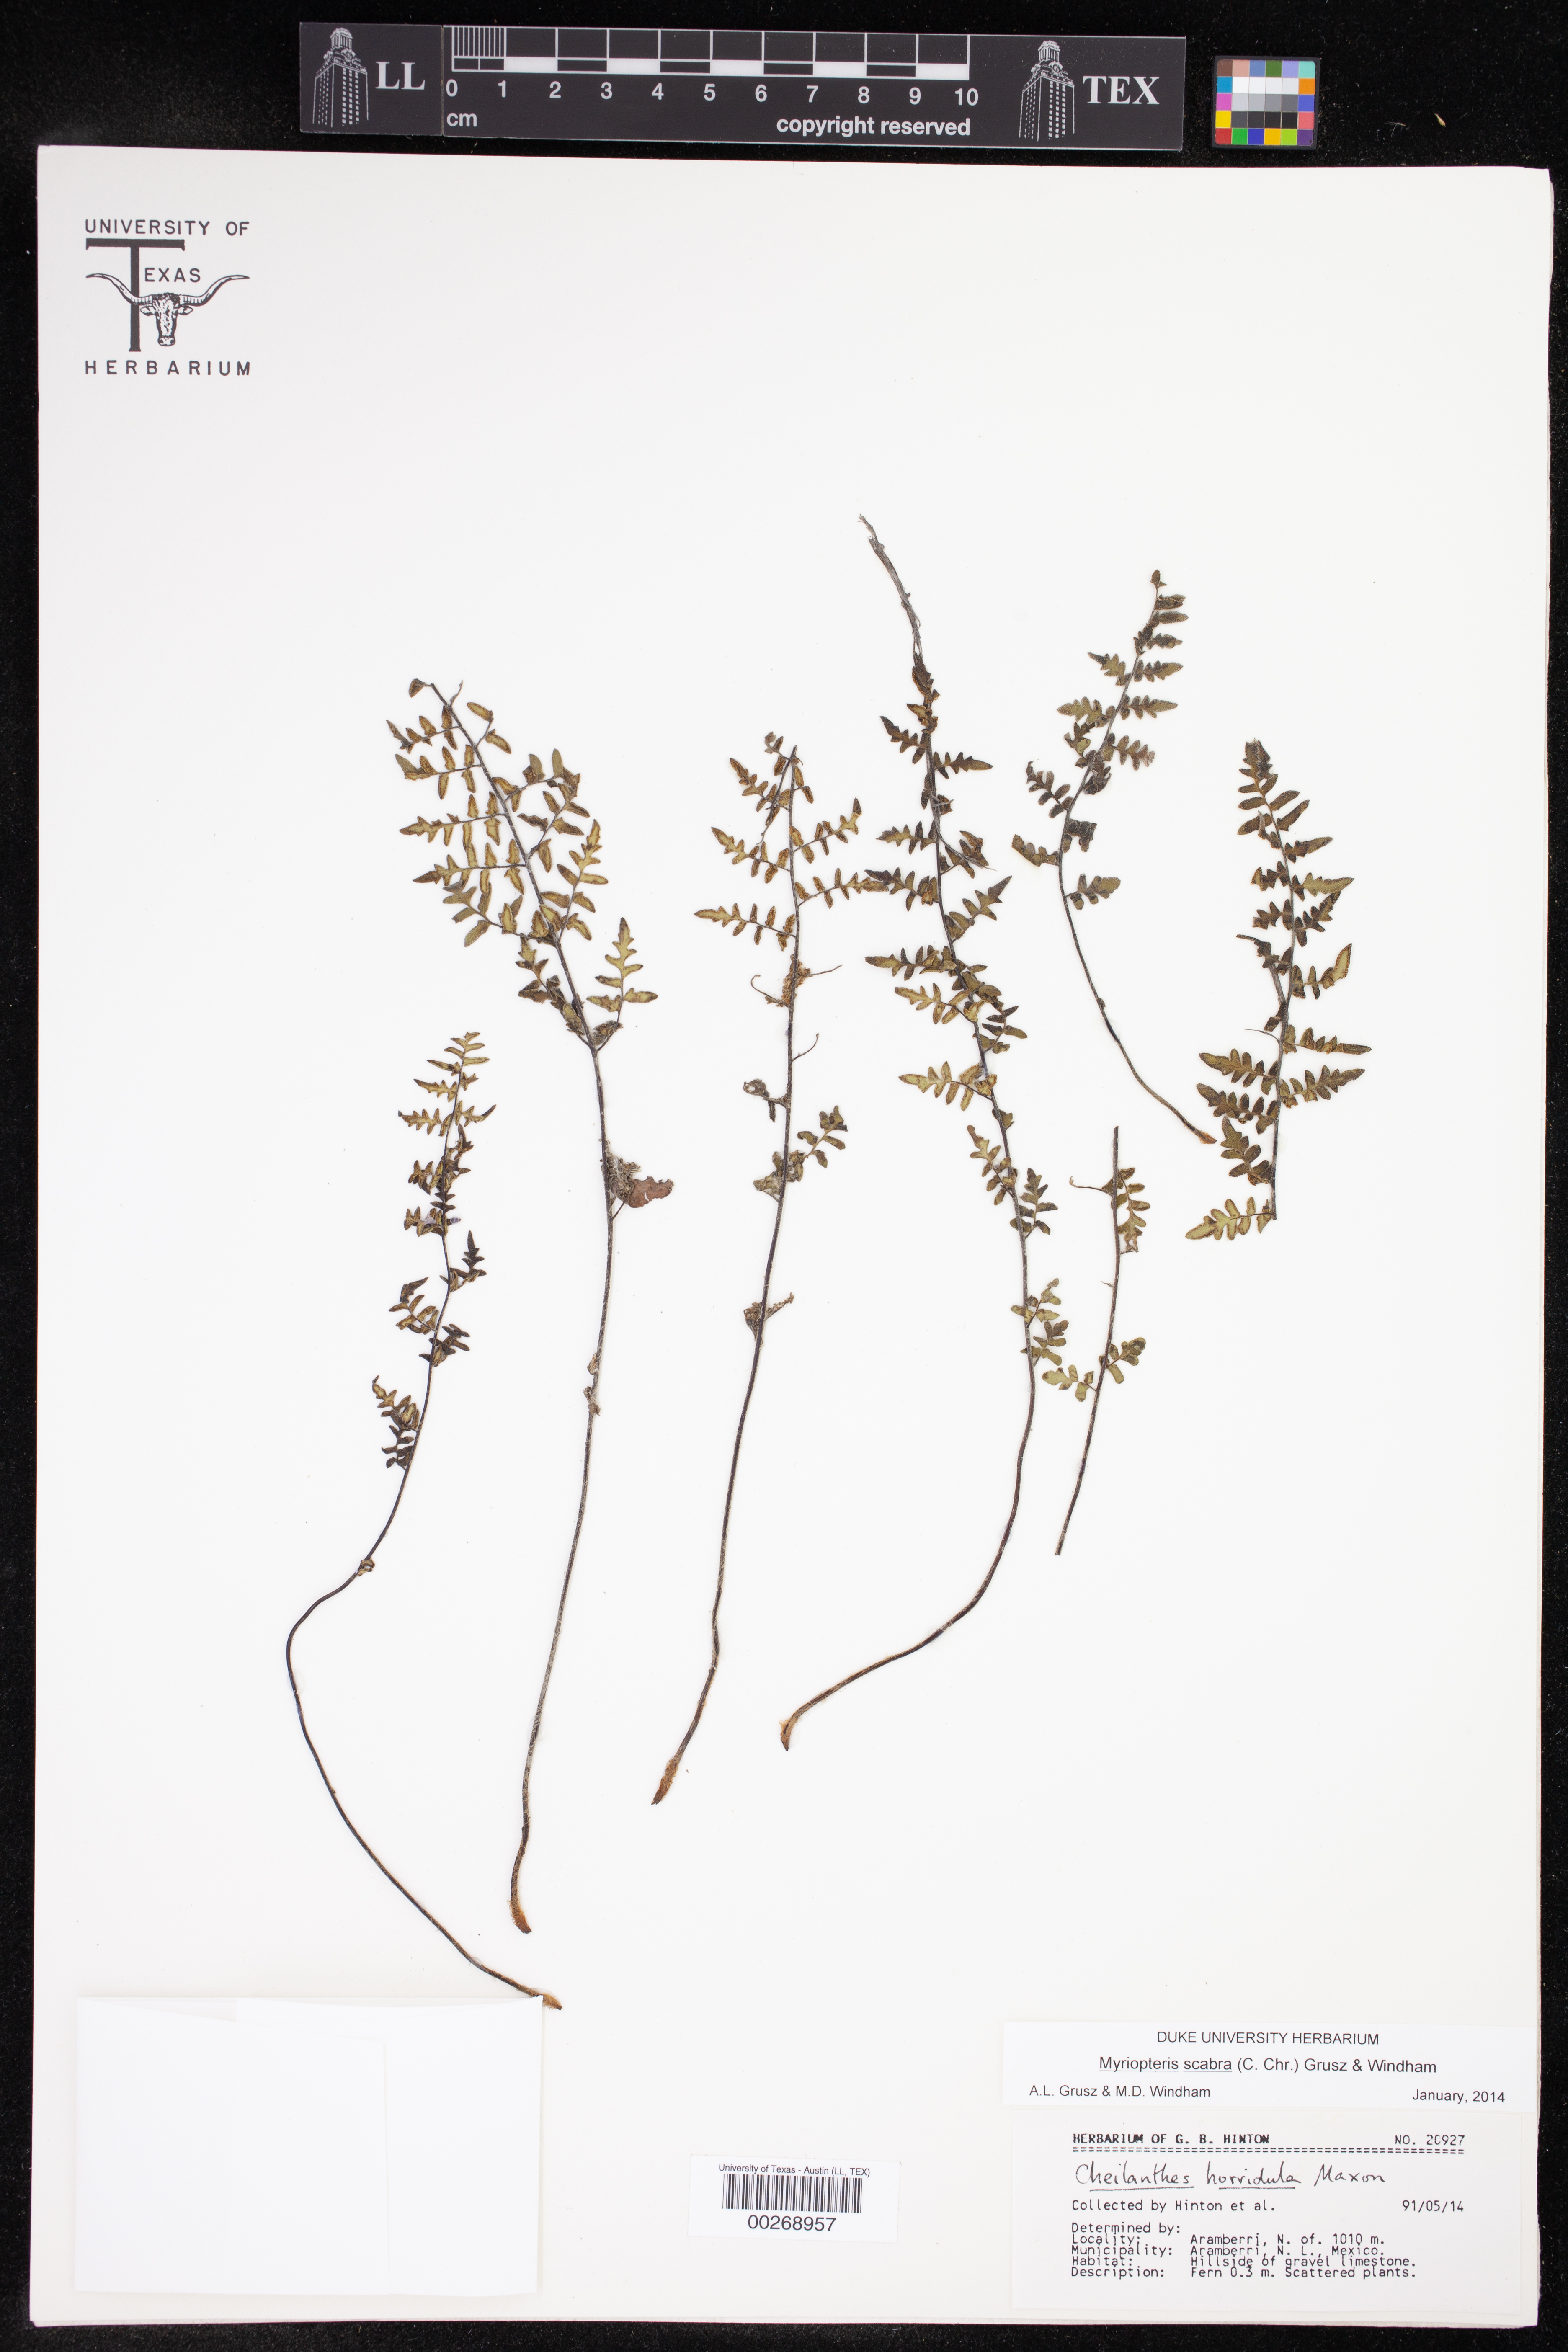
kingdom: Plantae
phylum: Tracheophyta
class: Polypodiopsida
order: Polypodiales
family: Pteridaceae
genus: Myriopteris
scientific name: Myriopteris scabra
